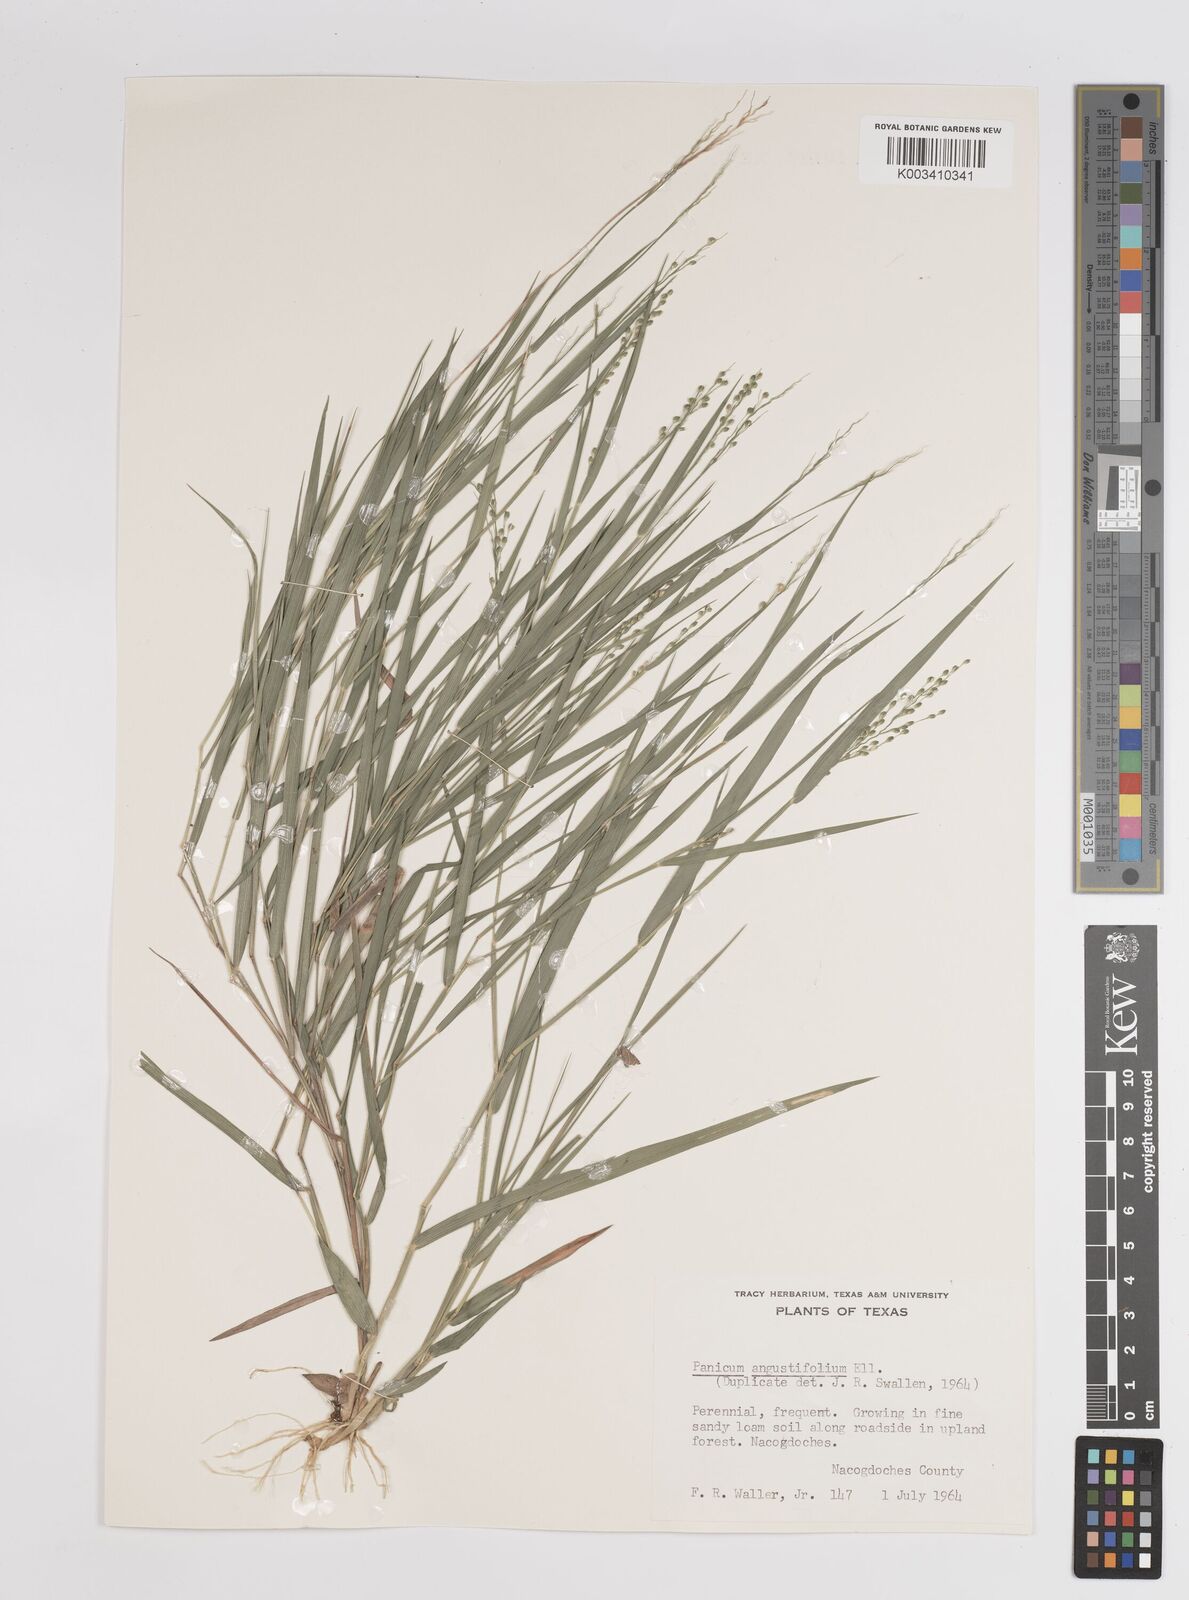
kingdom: Plantae
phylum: Tracheophyta
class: Liliopsida
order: Poales
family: Poaceae
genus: Dichanthelium
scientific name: Dichanthelium angustifolium
